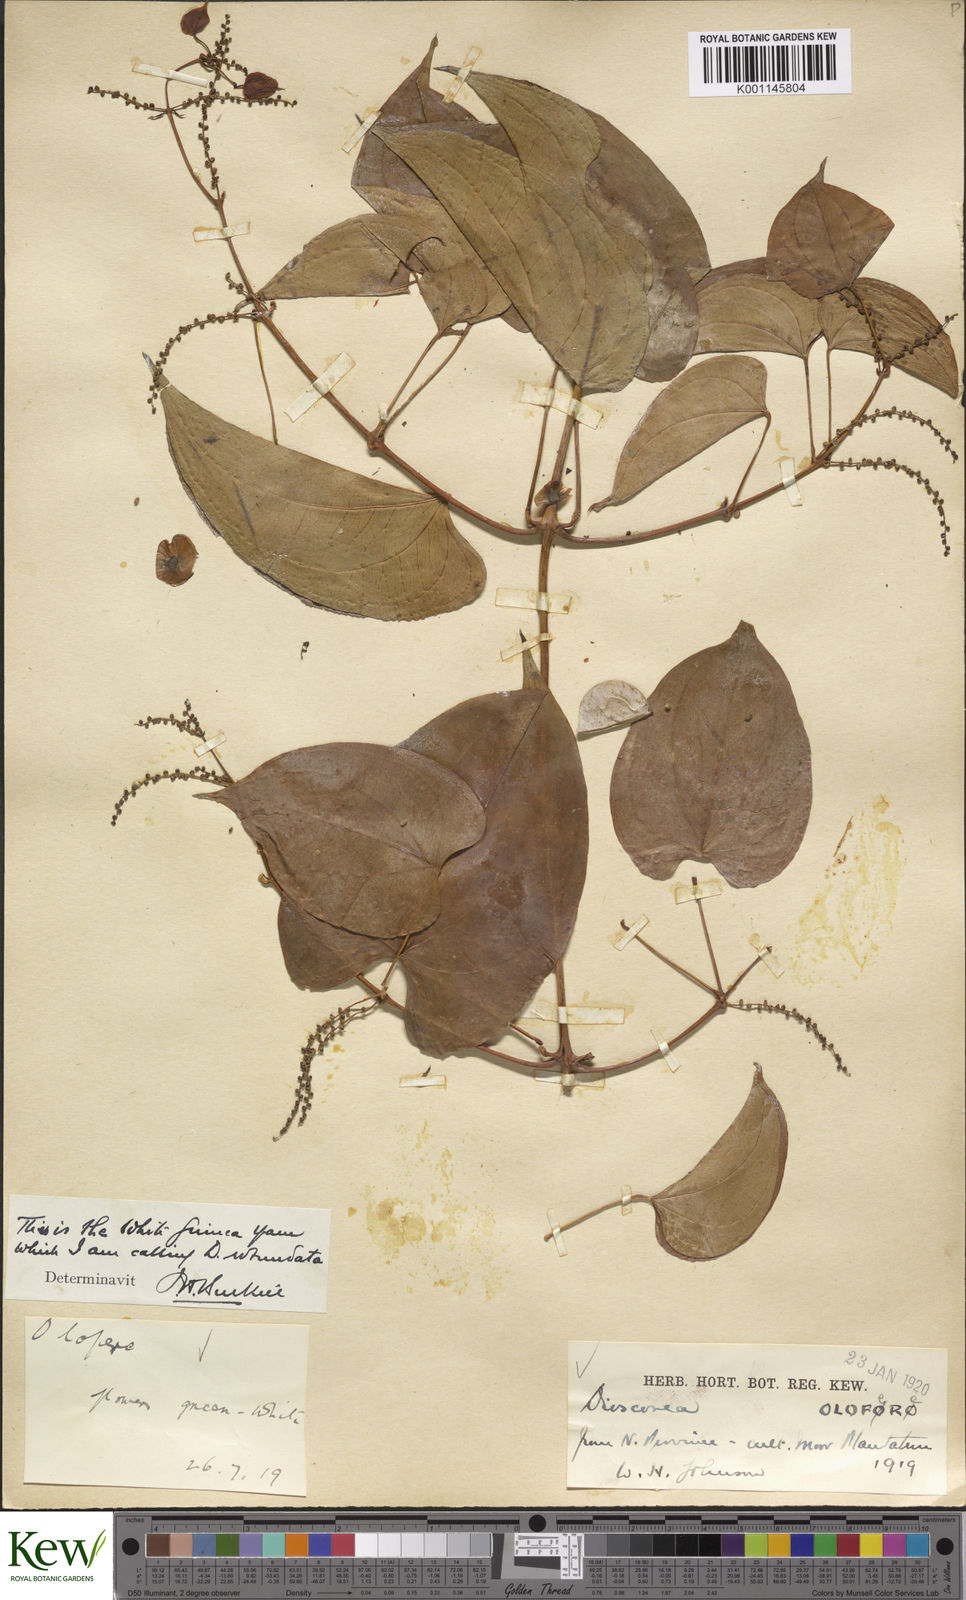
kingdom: Plantae
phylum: Tracheophyta
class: Liliopsida
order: Dioscoreales
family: Dioscoreaceae
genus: Dioscorea
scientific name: Dioscorea cayenensis
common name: Attoto yam
